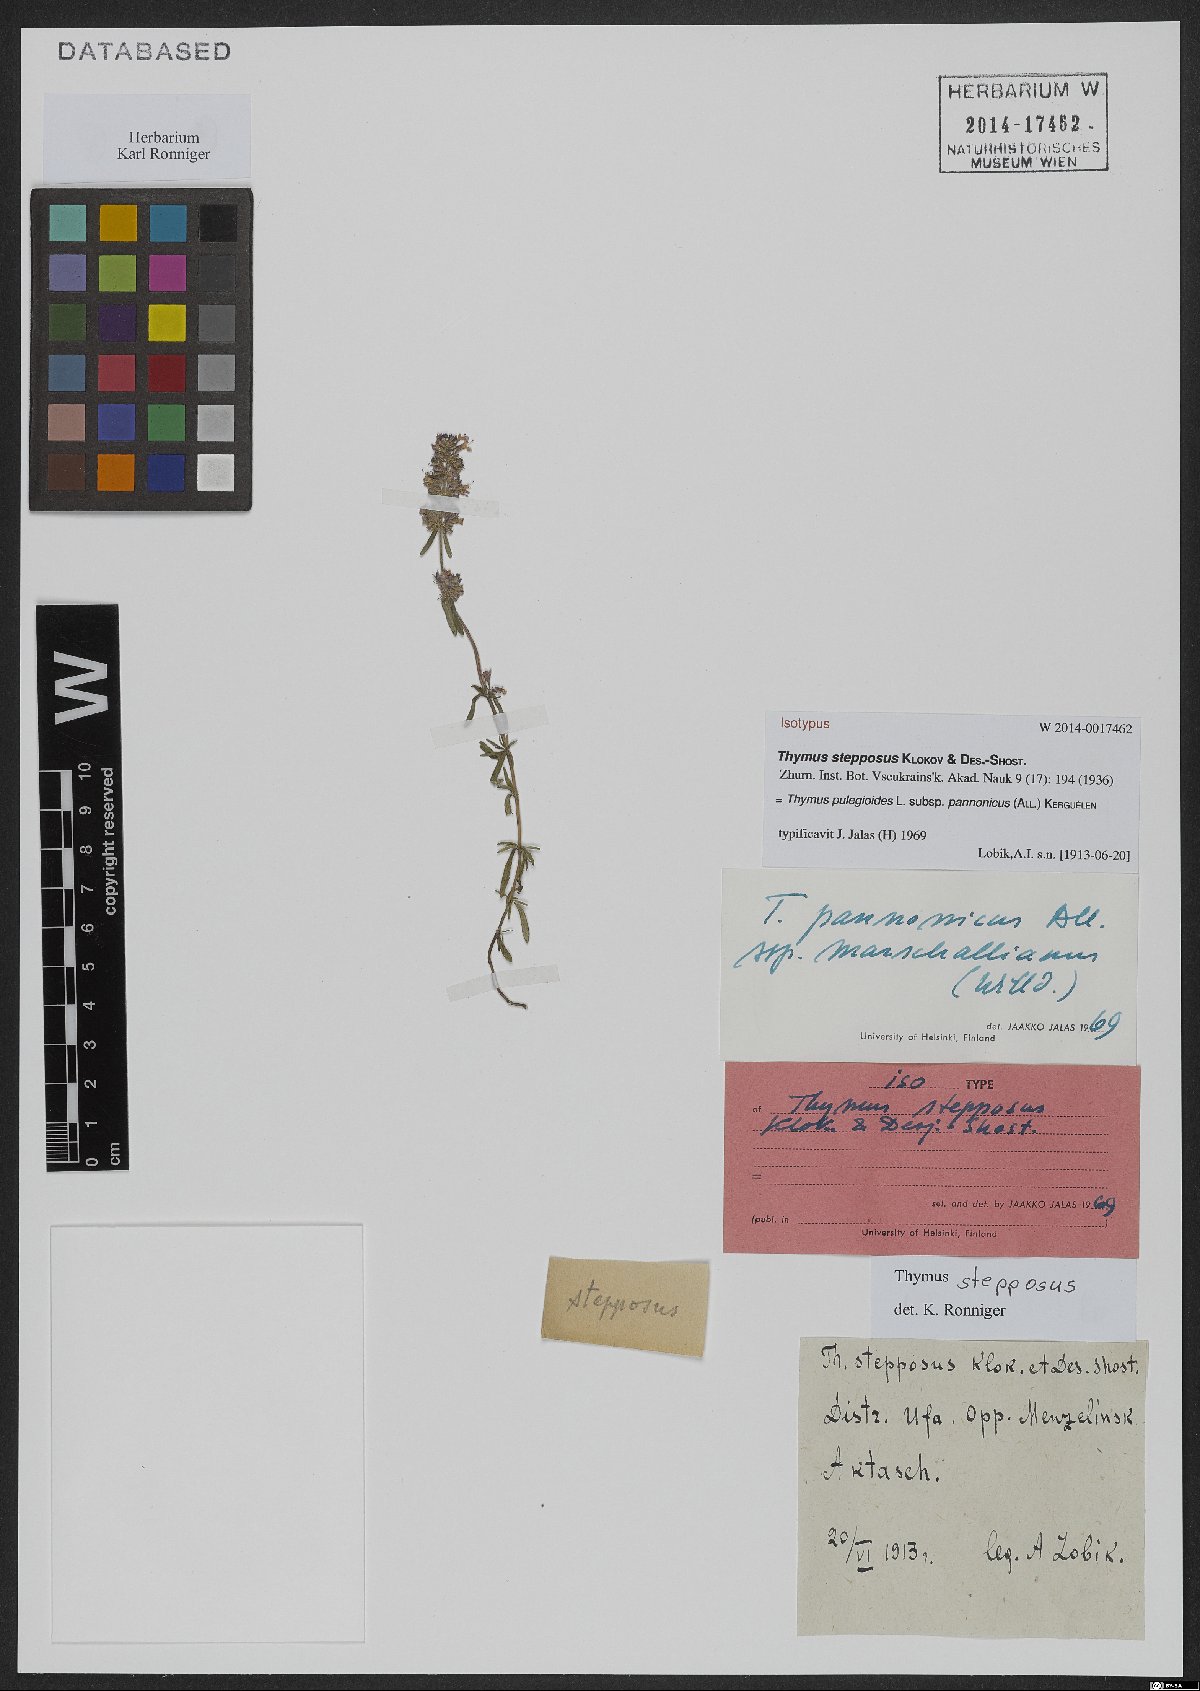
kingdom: Plantae
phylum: Tracheophyta
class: Magnoliopsida
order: Lamiales
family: Lamiaceae
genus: Thymus
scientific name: Thymus pannonicus
